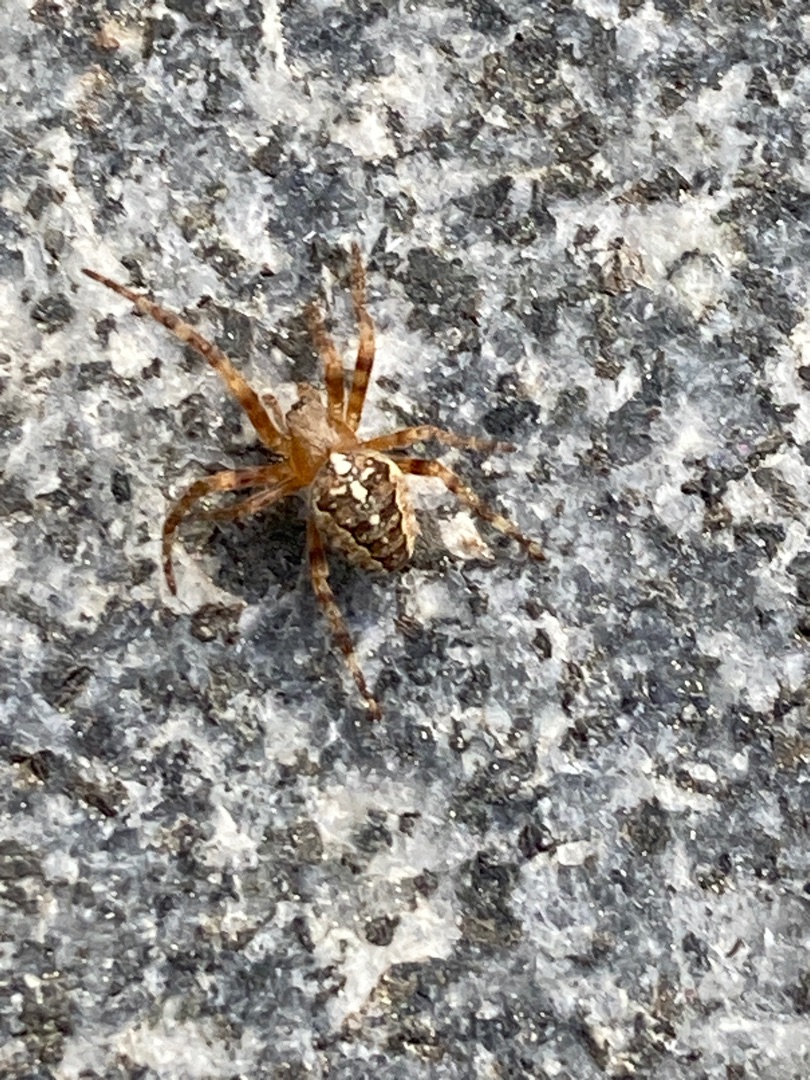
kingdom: Animalia
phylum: Arthropoda
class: Arachnida
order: Araneae
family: Araneidae
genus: Araneus
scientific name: Araneus diadematus
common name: Korsedderkop
